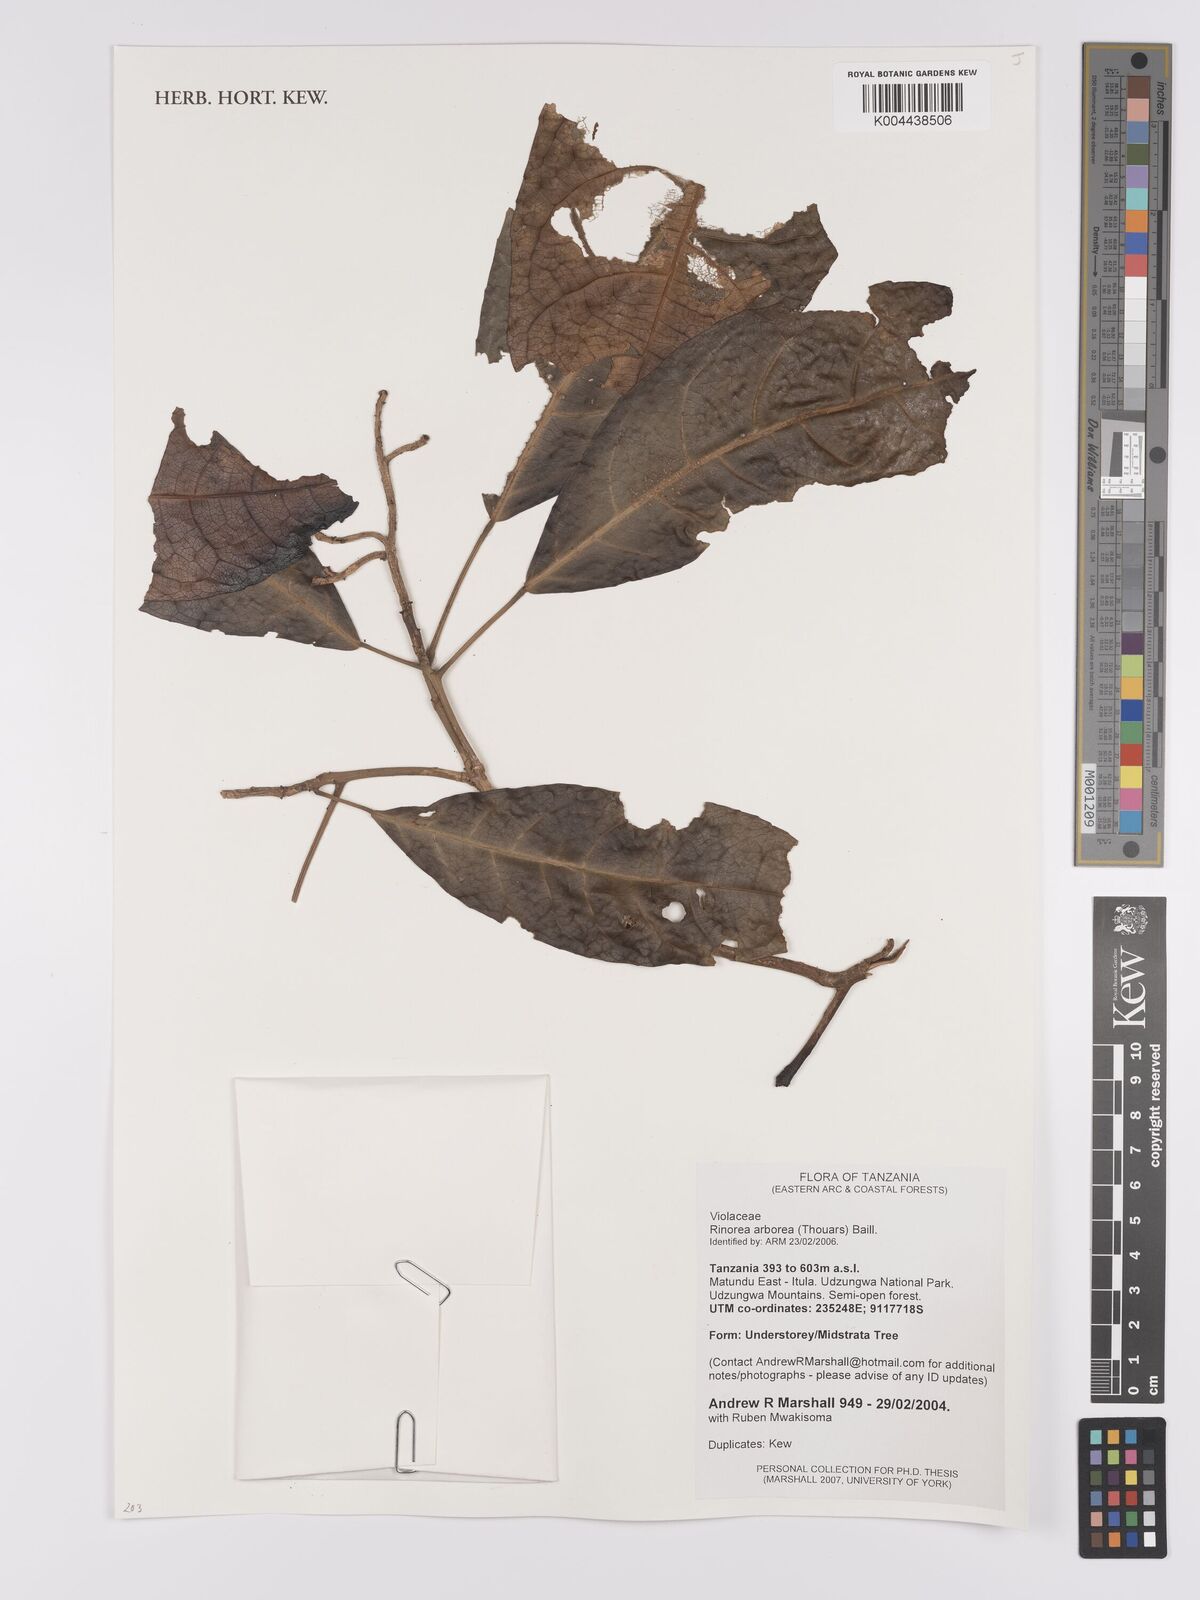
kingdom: Plantae
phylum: Tracheophyta
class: Magnoliopsida
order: Malpighiales
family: Violaceae
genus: Rinorea
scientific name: Rinorea arborea
